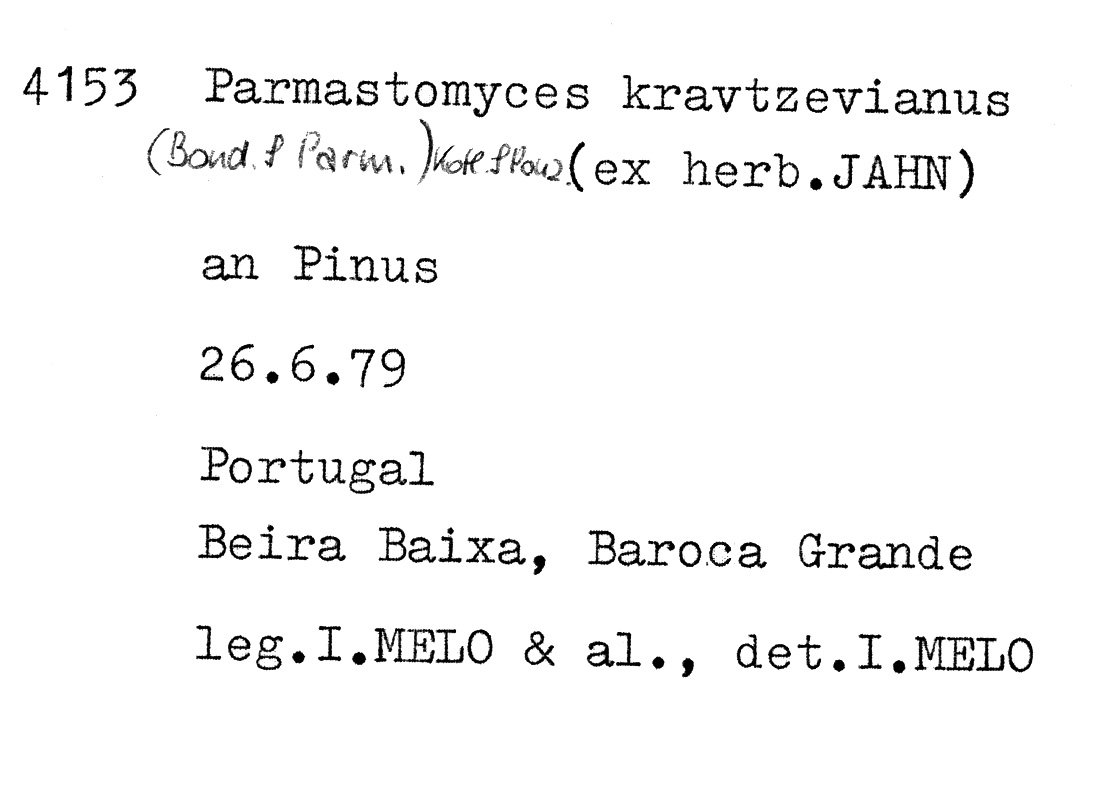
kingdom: Plantae
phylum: Tracheophyta
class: Pinopsida
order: Pinales
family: Pinaceae
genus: Pinus
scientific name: Pinus
